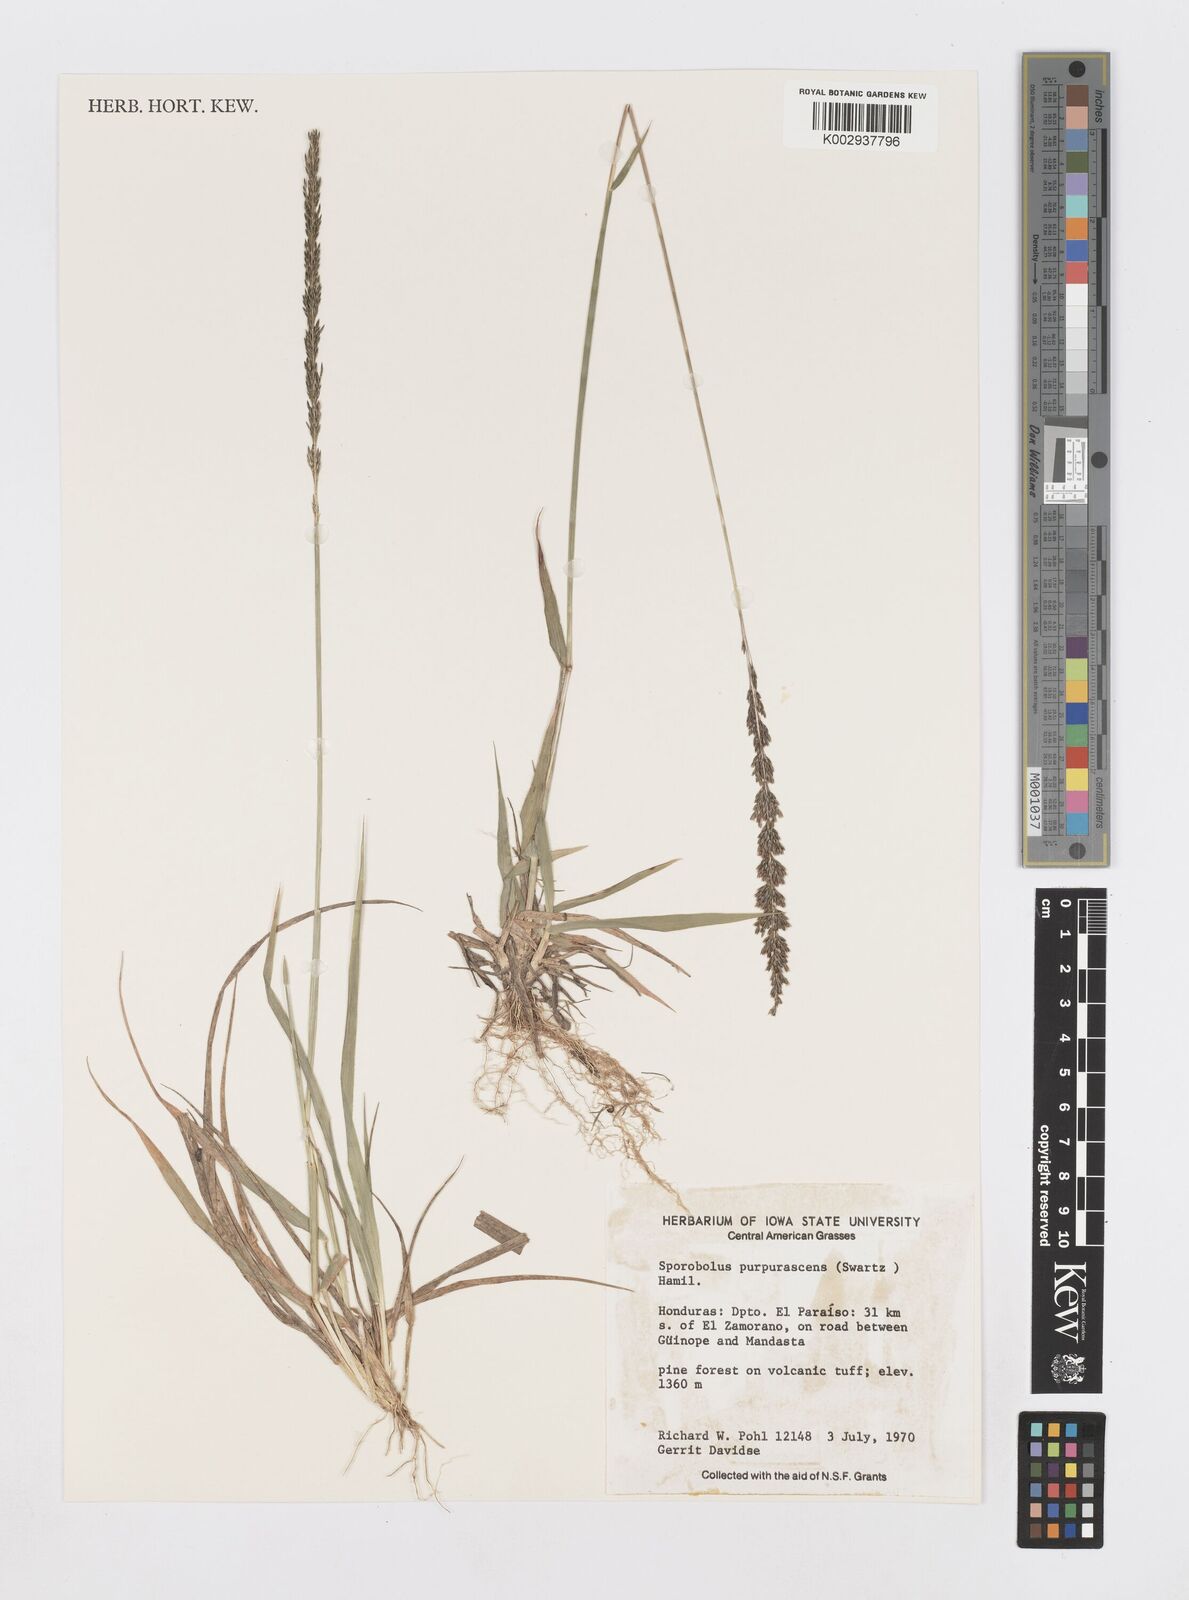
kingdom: Plantae
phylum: Tracheophyta
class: Liliopsida
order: Poales
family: Poaceae
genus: Sporobolus
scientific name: Sporobolus purpurascens
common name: Purple dropseed
